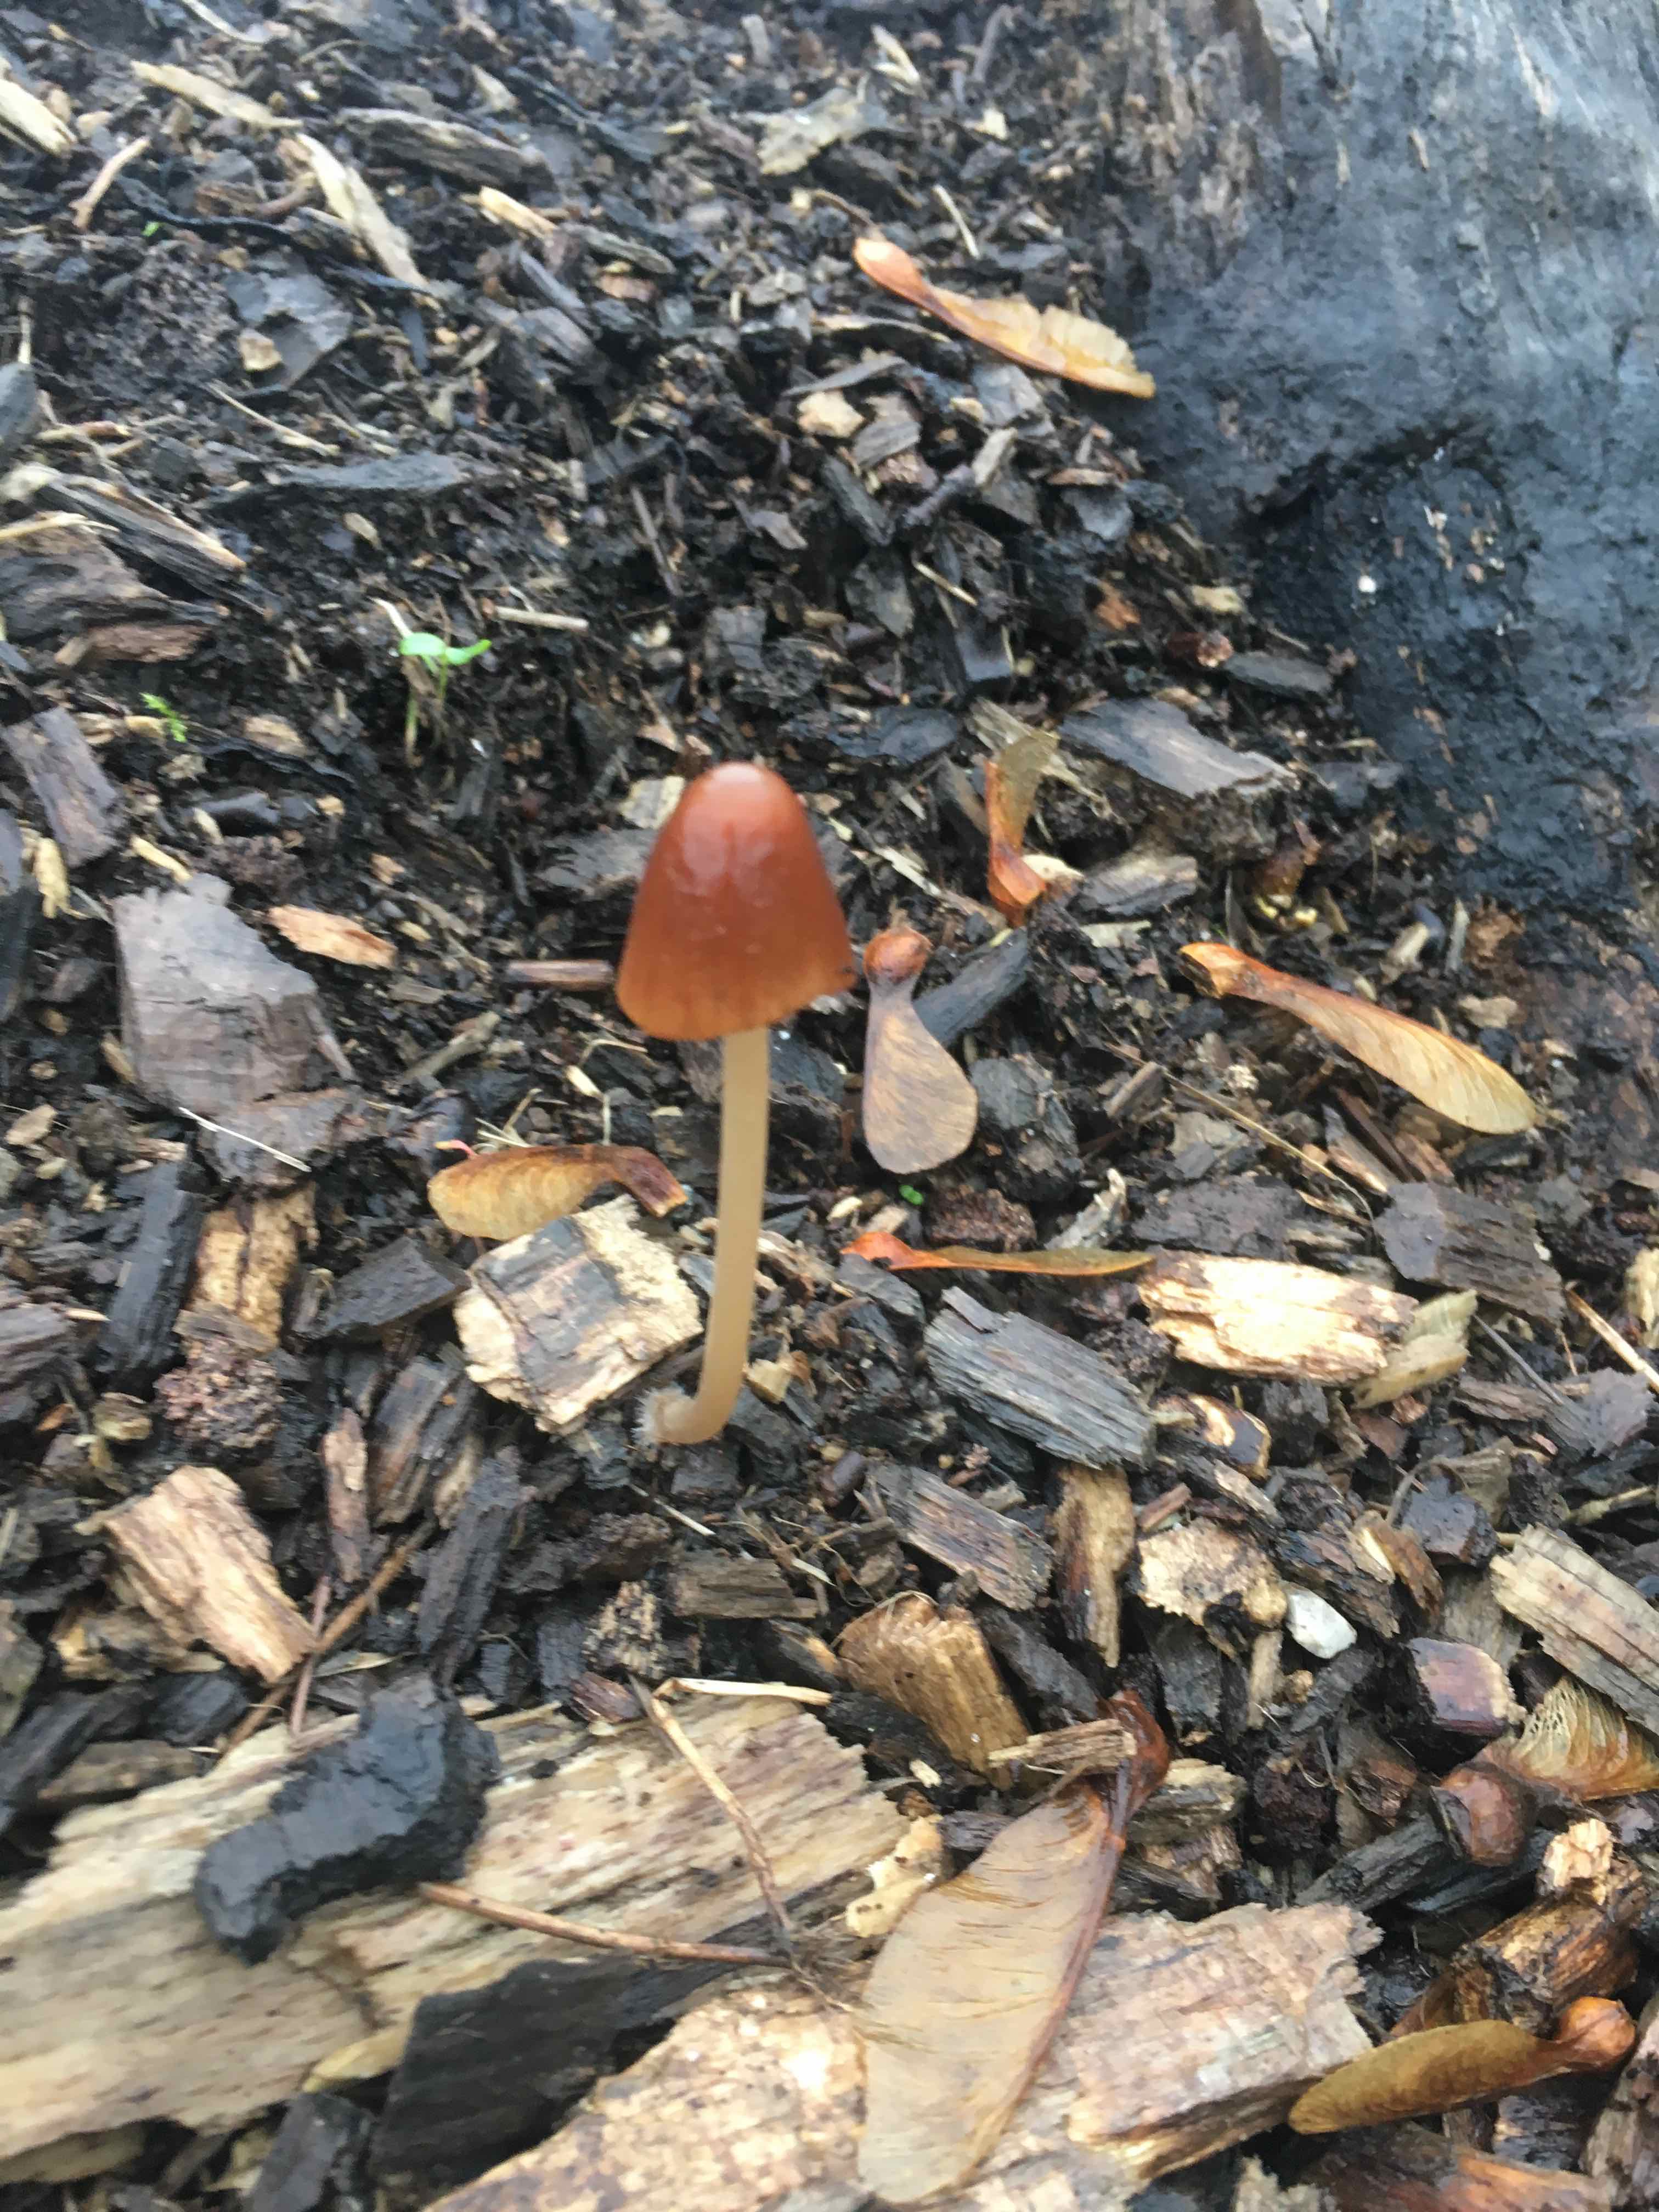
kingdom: Fungi
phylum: Basidiomycota
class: Agaricomycetes
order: Agaricales
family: Psathyrellaceae
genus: Parasola
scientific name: Parasola conopilea
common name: kegle-hjulhat
